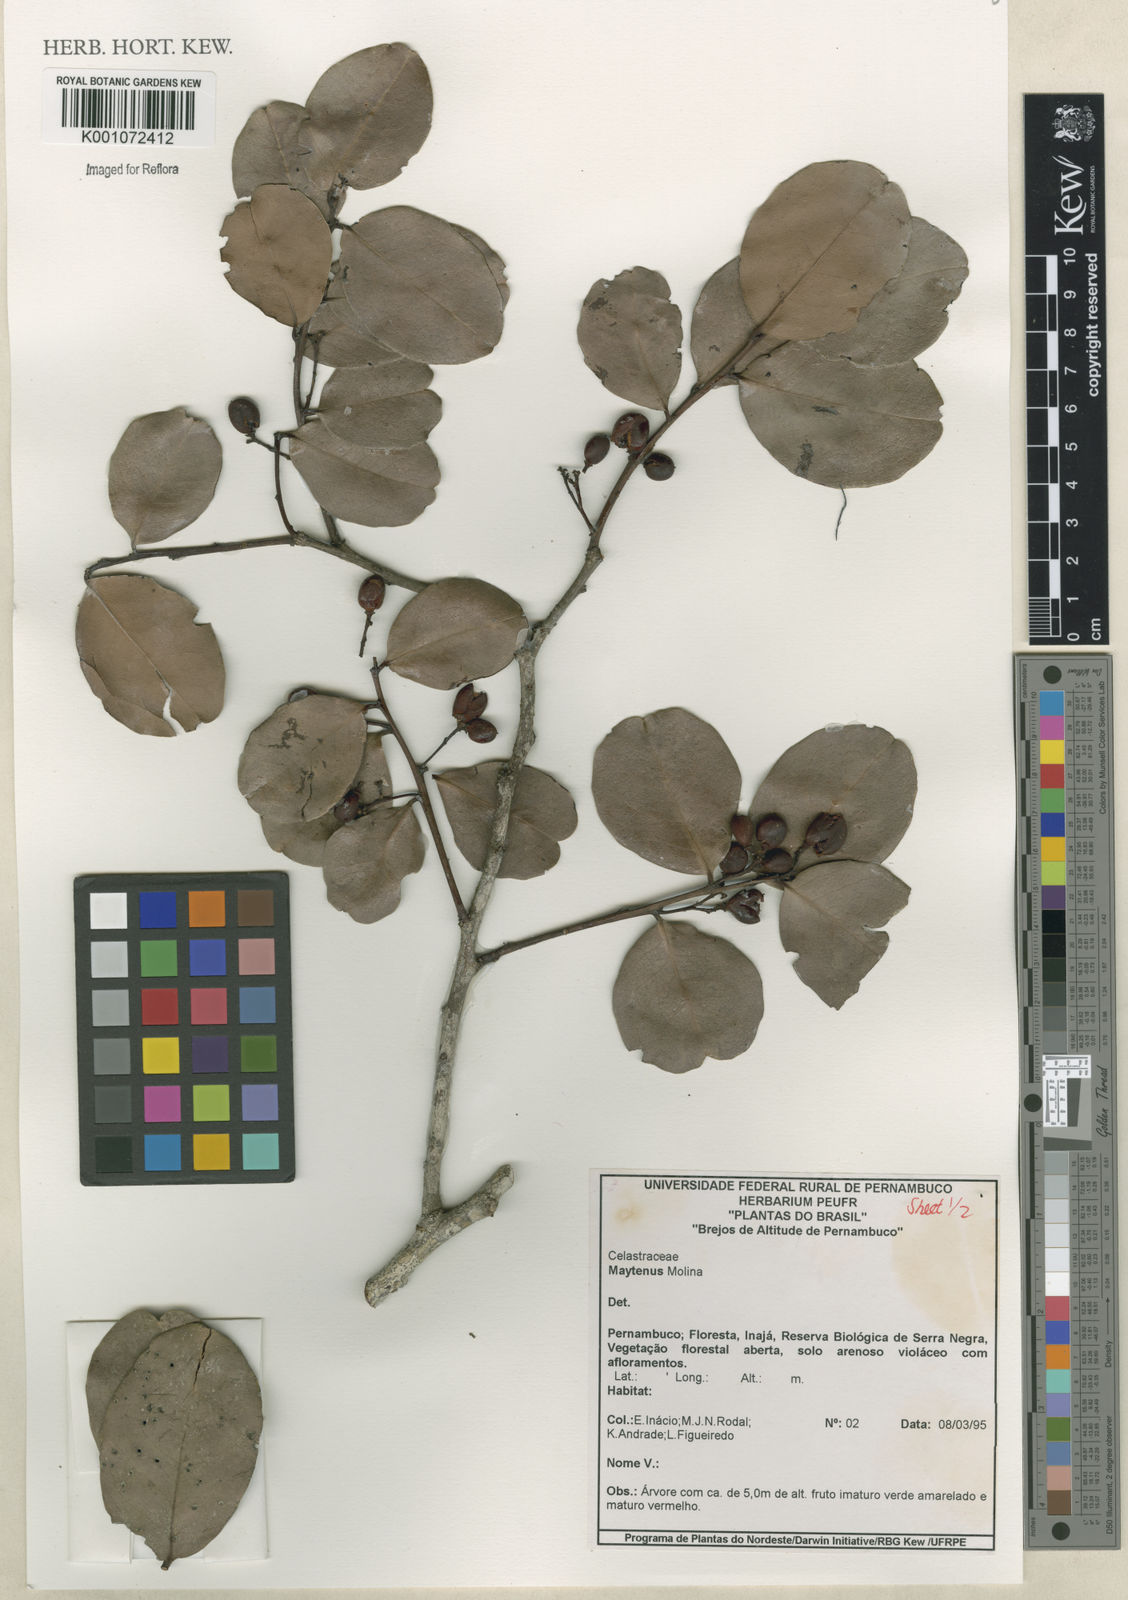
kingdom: Plantae
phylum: Tracheophyta
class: Magnoliopsida
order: Celastrales
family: Celastraceae
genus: Maytenus
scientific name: Maytenus
